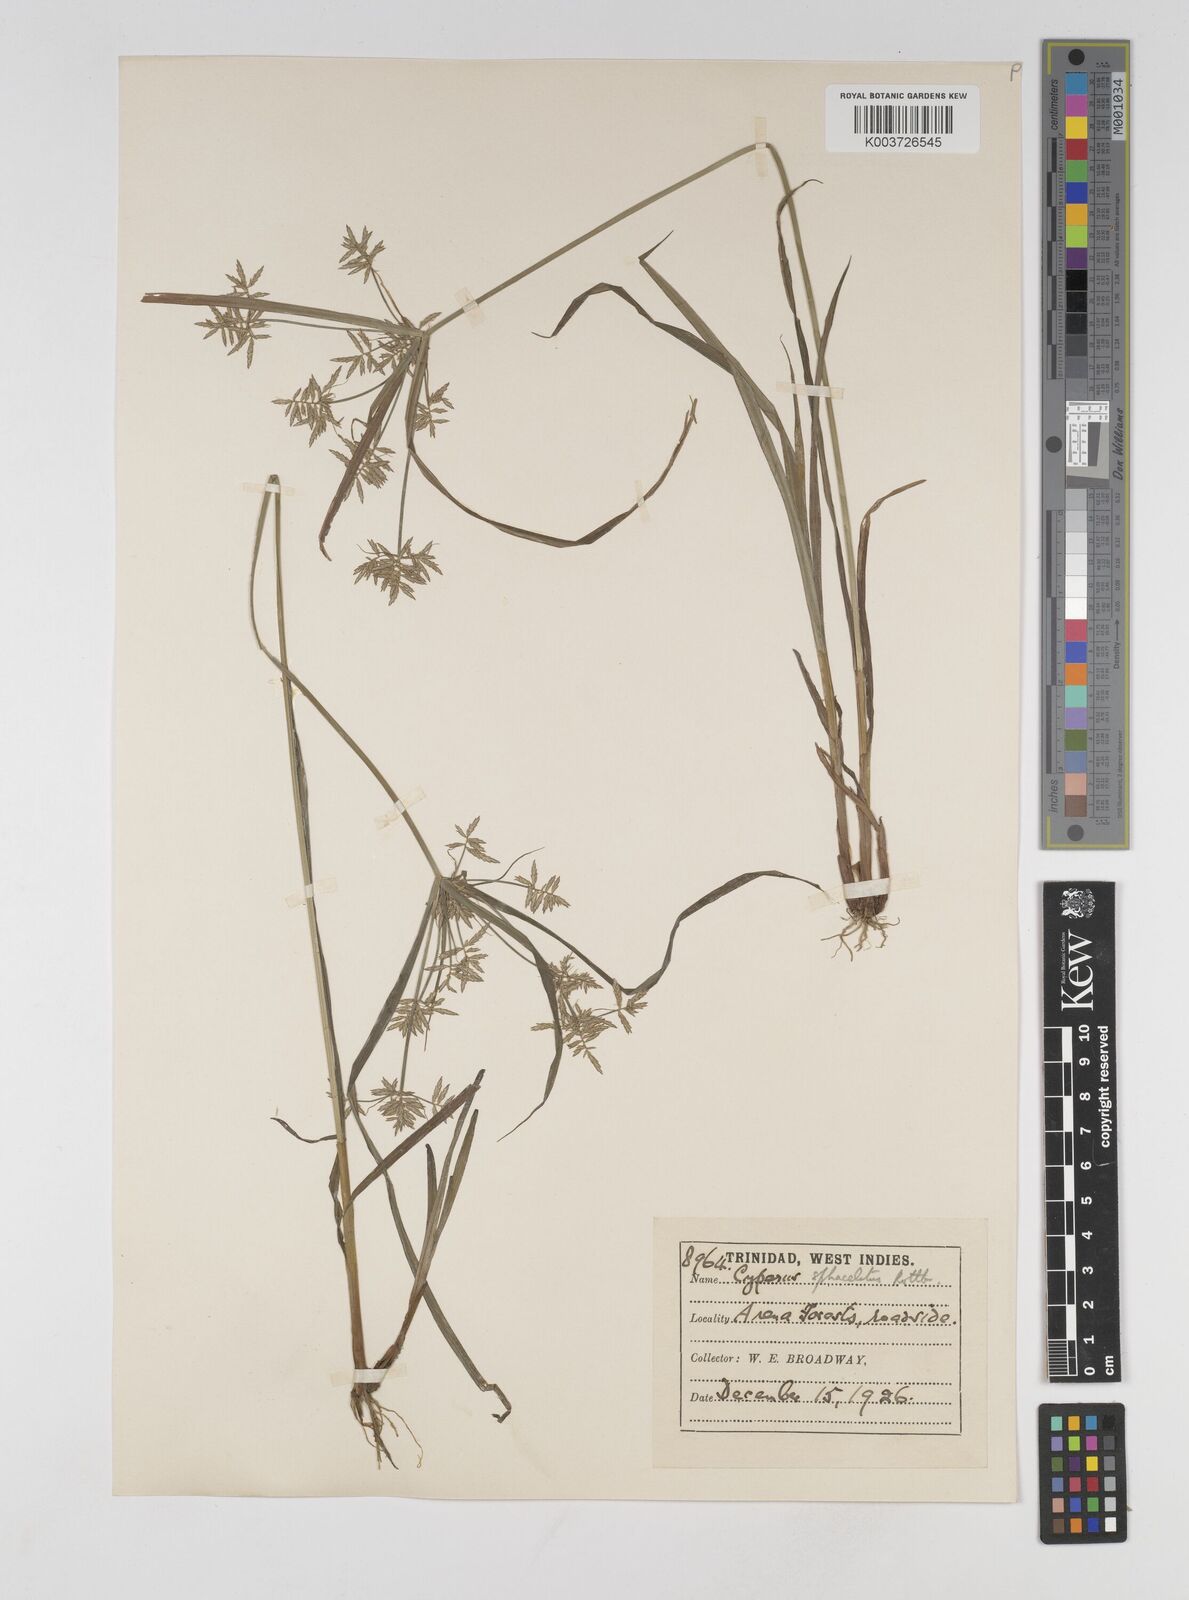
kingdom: Plantae
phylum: Tracheophyta
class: Liliopsida
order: Poales
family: Cyperaceae
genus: Cyperus
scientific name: Cyperus sphacelatus
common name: Roadside flatsedge
